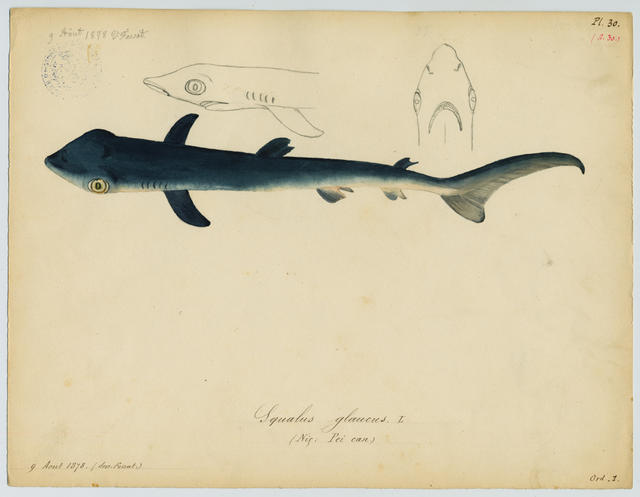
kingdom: Animalia
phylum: Chordata
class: Elasmobranchii
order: Carcharhiniformes
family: Carcharhinidae
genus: Prionace
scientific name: Prionace glauca
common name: Blue shark
